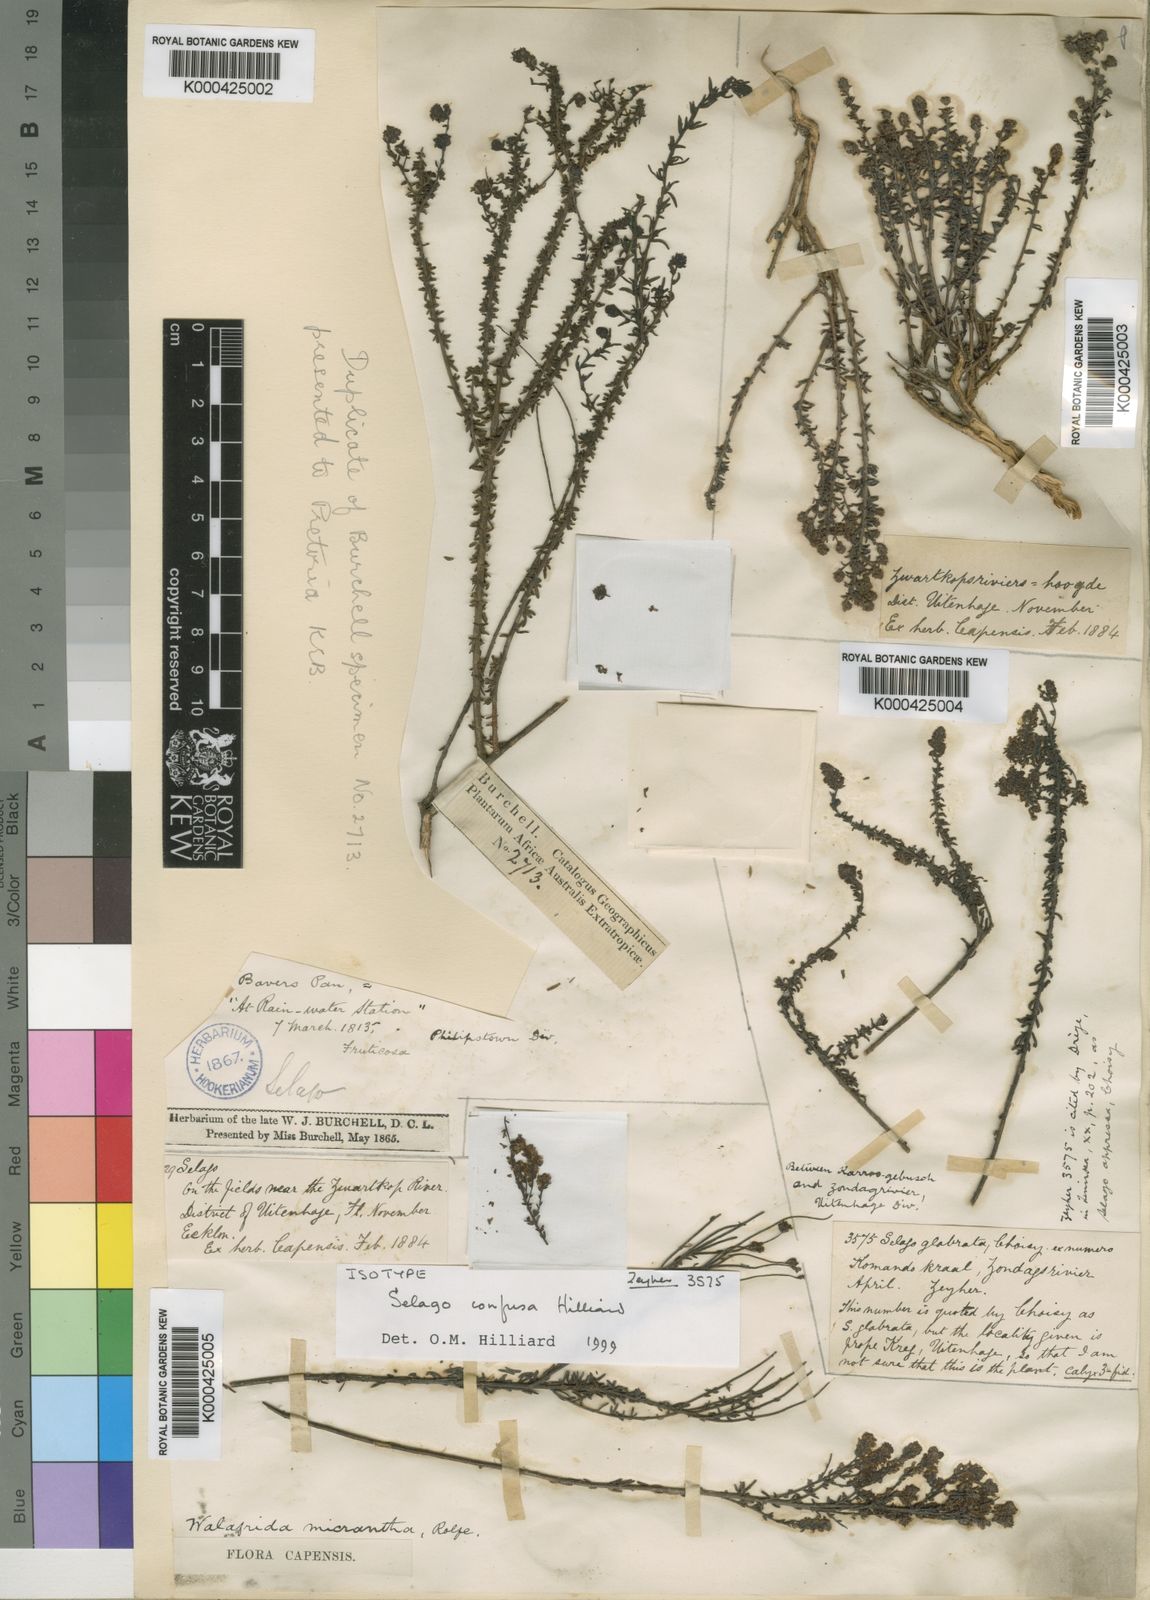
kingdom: Plantae
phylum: Tracheophyta
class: Magnoliopsida
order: Lamiales
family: Scrophulariaceae
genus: Selago
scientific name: Selago confusa
